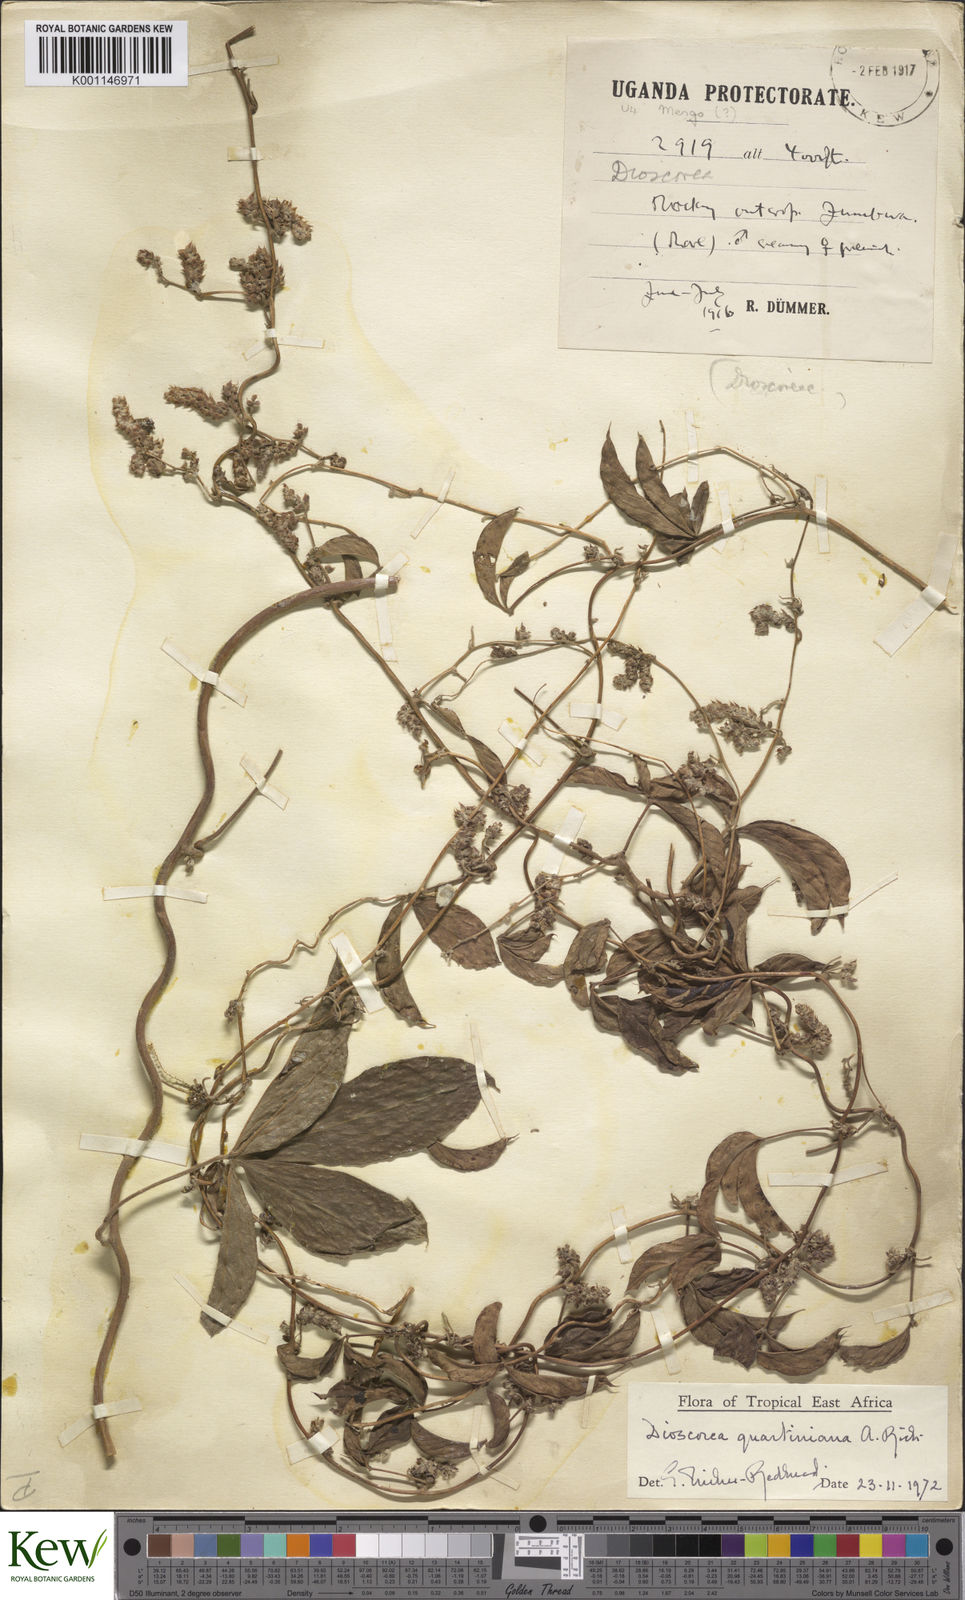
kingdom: Plantae
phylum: Tracheophyta
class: Liliopsida
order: Dioscoreales
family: Dioscoreaceae
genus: Dioscorea
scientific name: Dioscorea quartiniana
